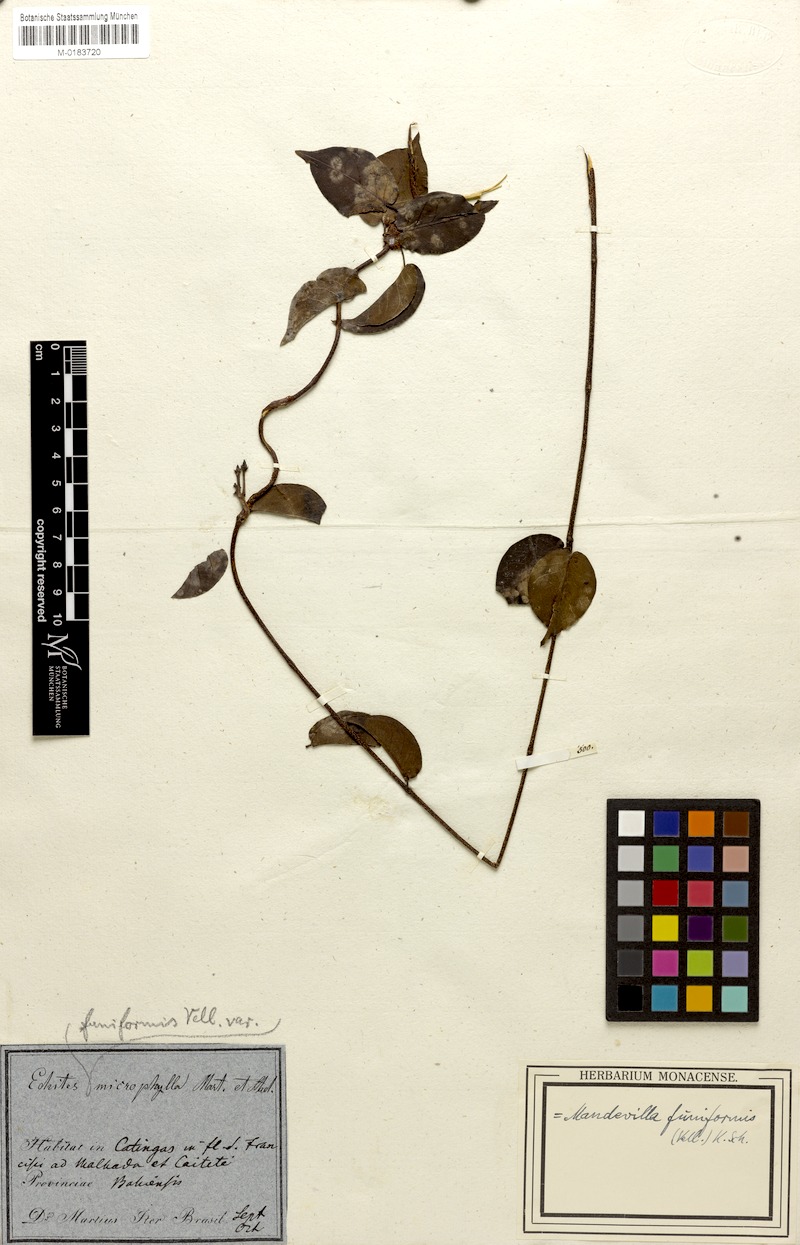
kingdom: Plantae
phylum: Tracheophyta
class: Magnoliopsida
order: Gentianales
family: Apocynaceae
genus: Mandevilla
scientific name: Mandevilla funiformis
